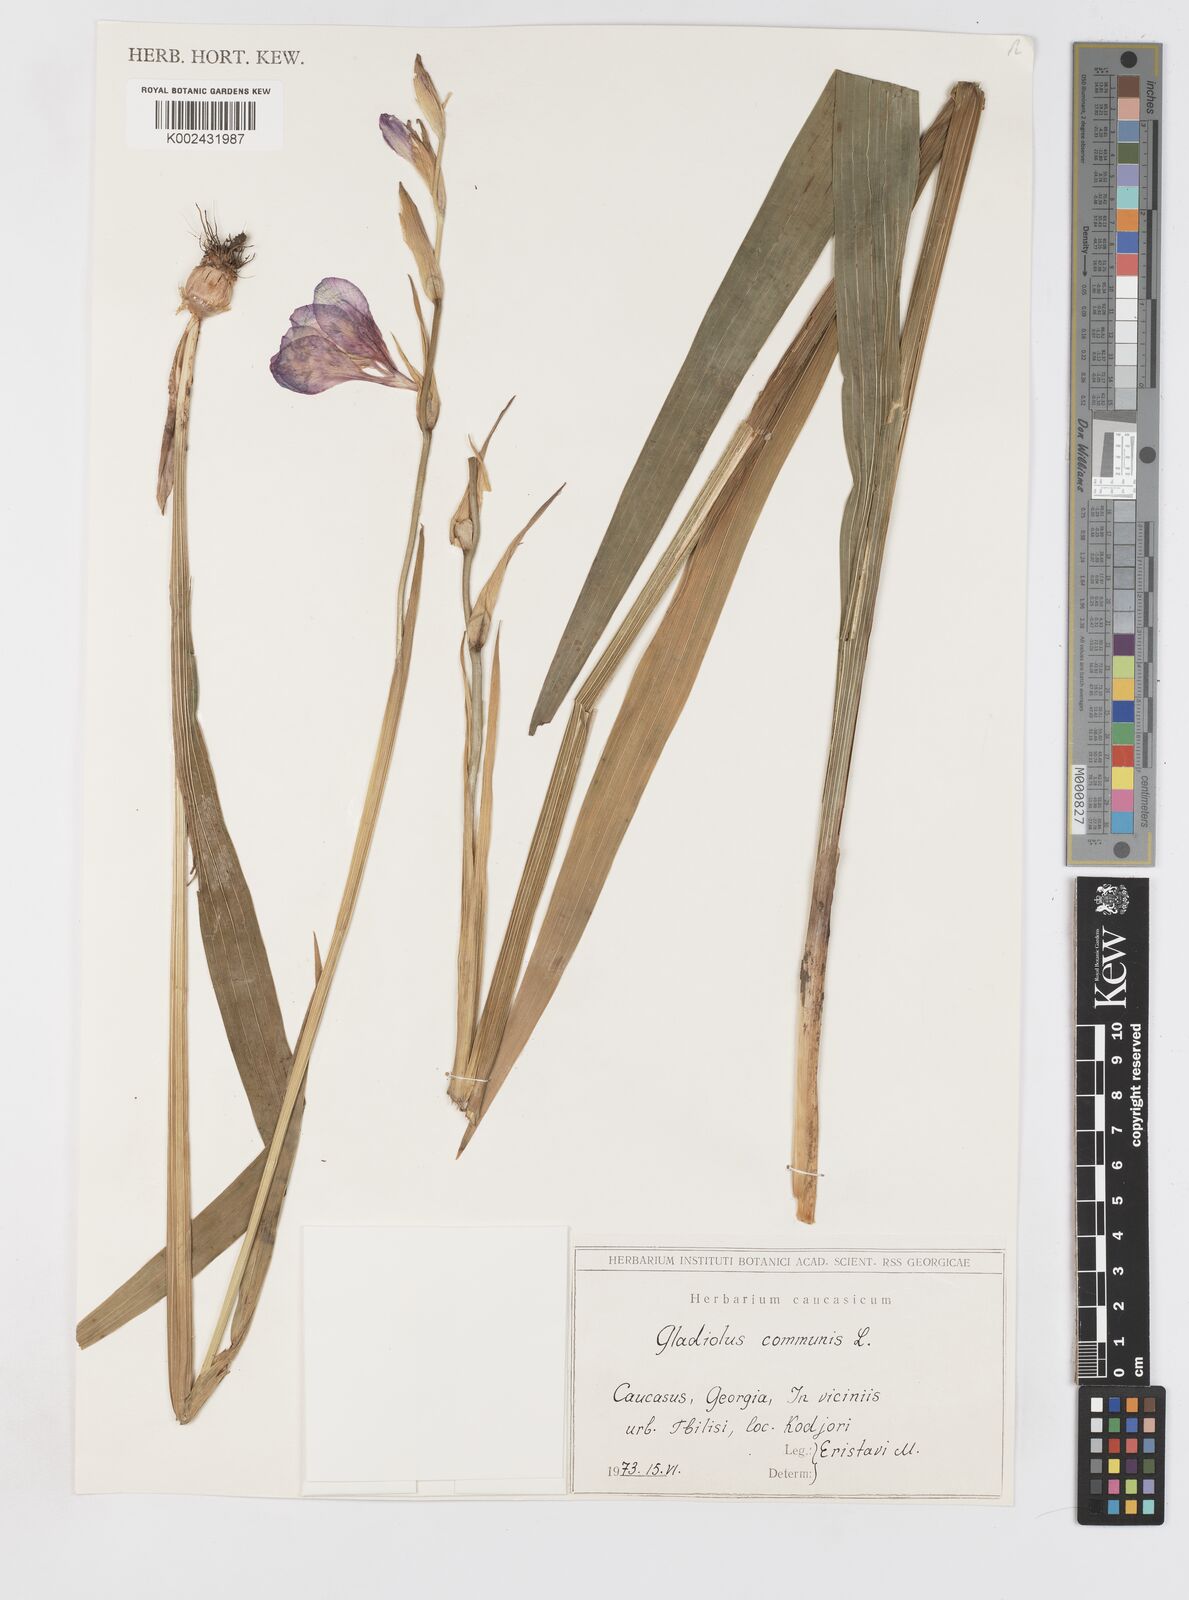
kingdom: Plantae
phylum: Tracheophyta
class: Liliopsida
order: Asparagales
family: Iridaceae
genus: Gladiolus
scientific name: Gladiolus communis
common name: Eastern gladiolus
